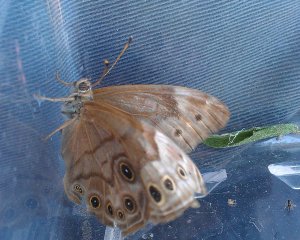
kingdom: Animalia
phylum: Arthropoda
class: Insecta
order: Lepidoptera
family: Nymphalidae
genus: Lethe
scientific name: Lethe anthedon
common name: Northern Pearly-Eye
